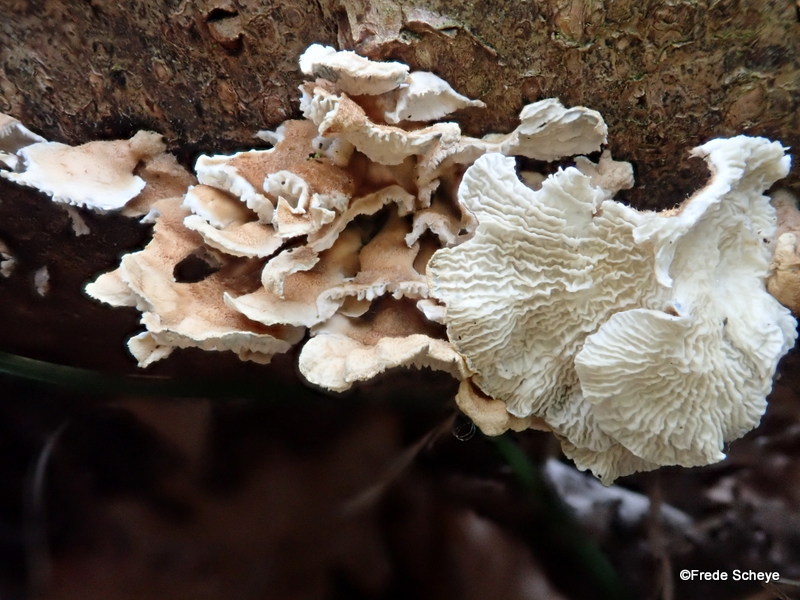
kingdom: Fungi
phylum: Basidiomycota
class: Agaricomycetes
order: Amylocorticiales
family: Amylocorticiaceae
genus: Plicaturopsis
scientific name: Plicaturopsis crispa
